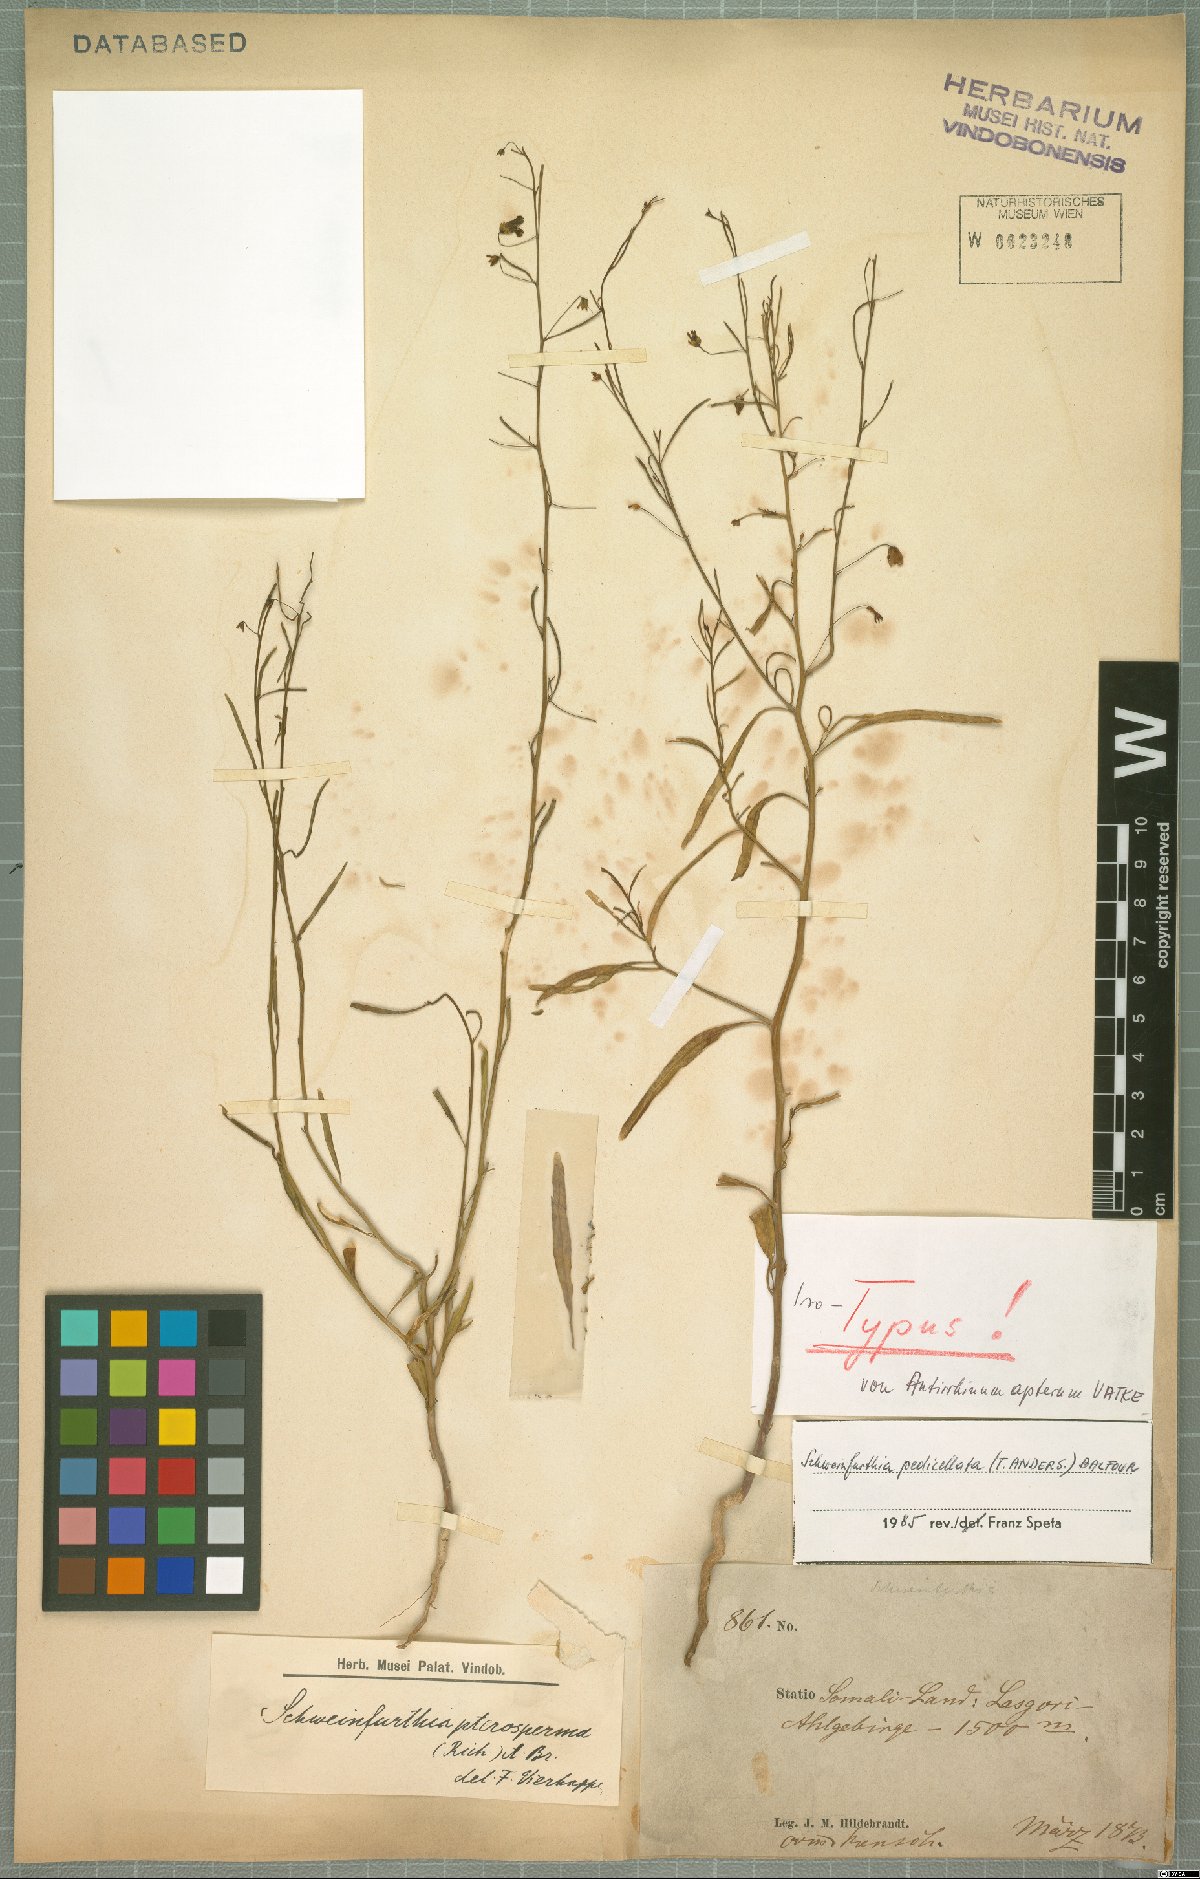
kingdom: Plantae
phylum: Tracheophyta
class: Magnoliopsida
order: Lamiales
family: Plantaginaceae
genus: Schweinfurthia
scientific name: Schweinfurthia pedicellata
